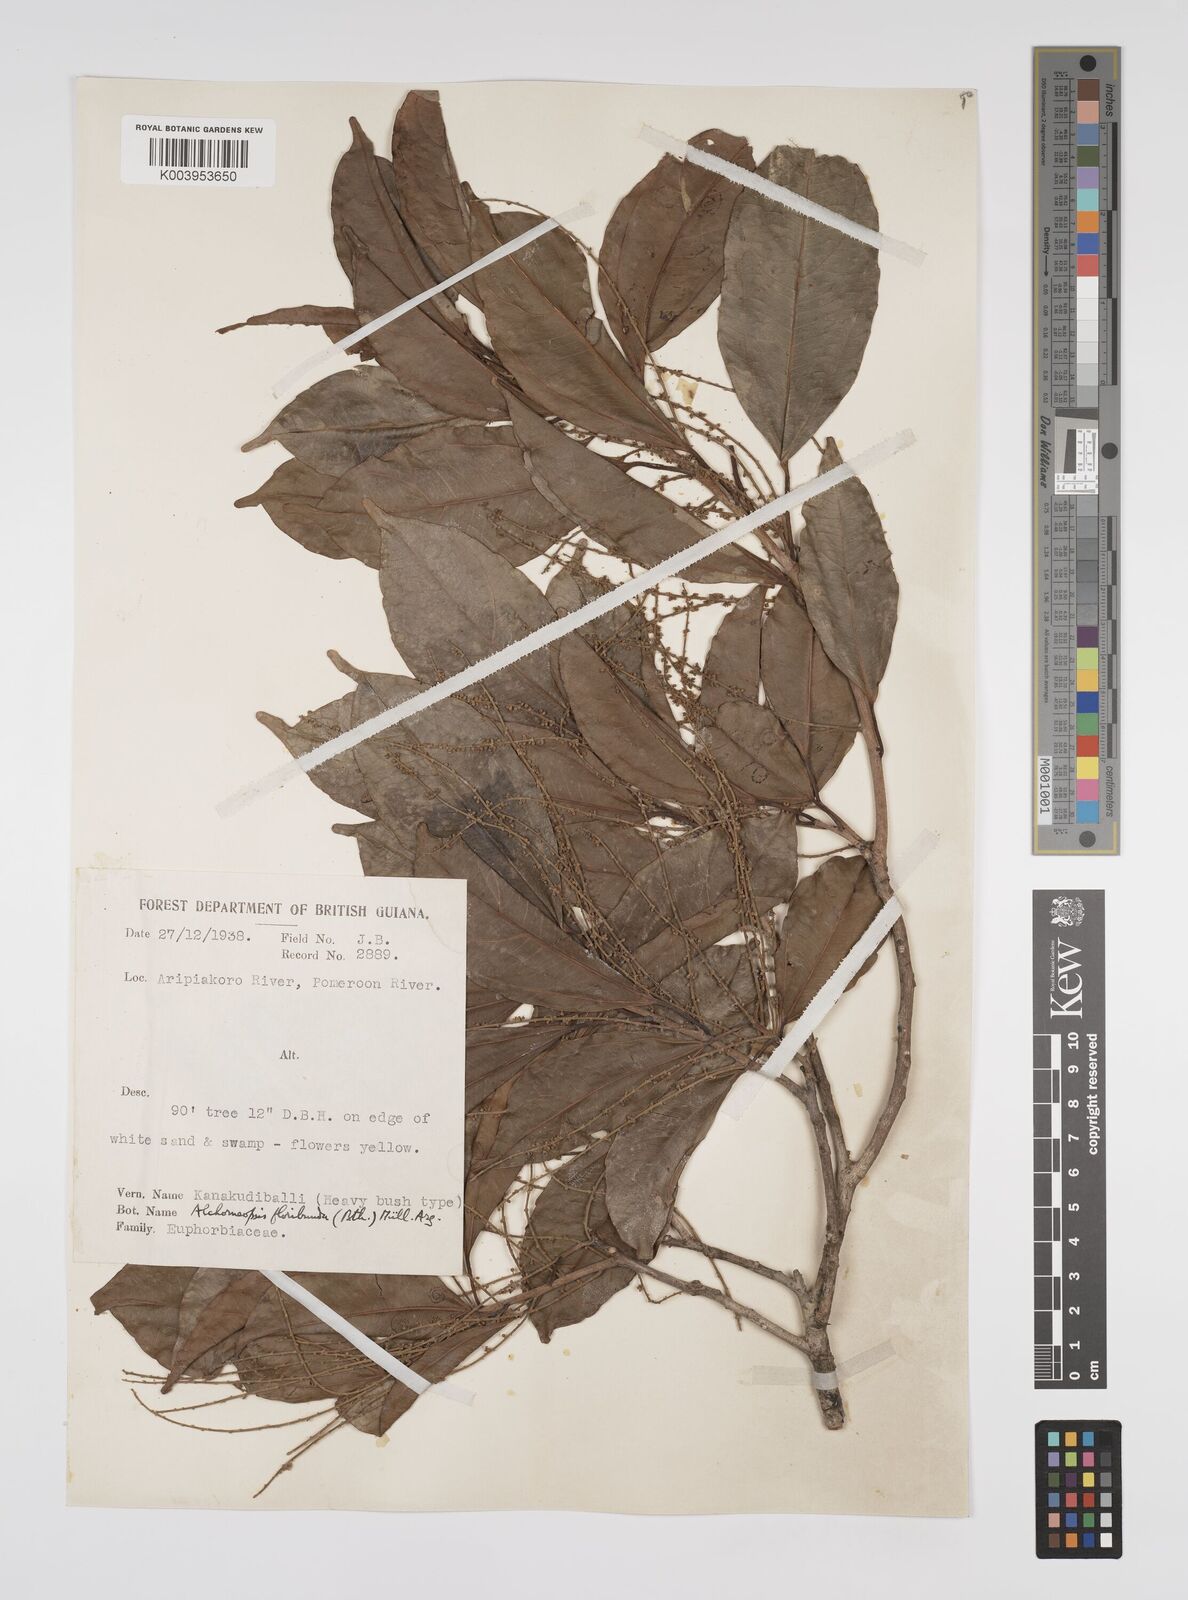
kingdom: Plantae
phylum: Tracheophyta
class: Magnoliopsida
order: Malpighiales
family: Euphorbiaceae
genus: Alchorneopsis
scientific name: Alchorneopsis floribunda
